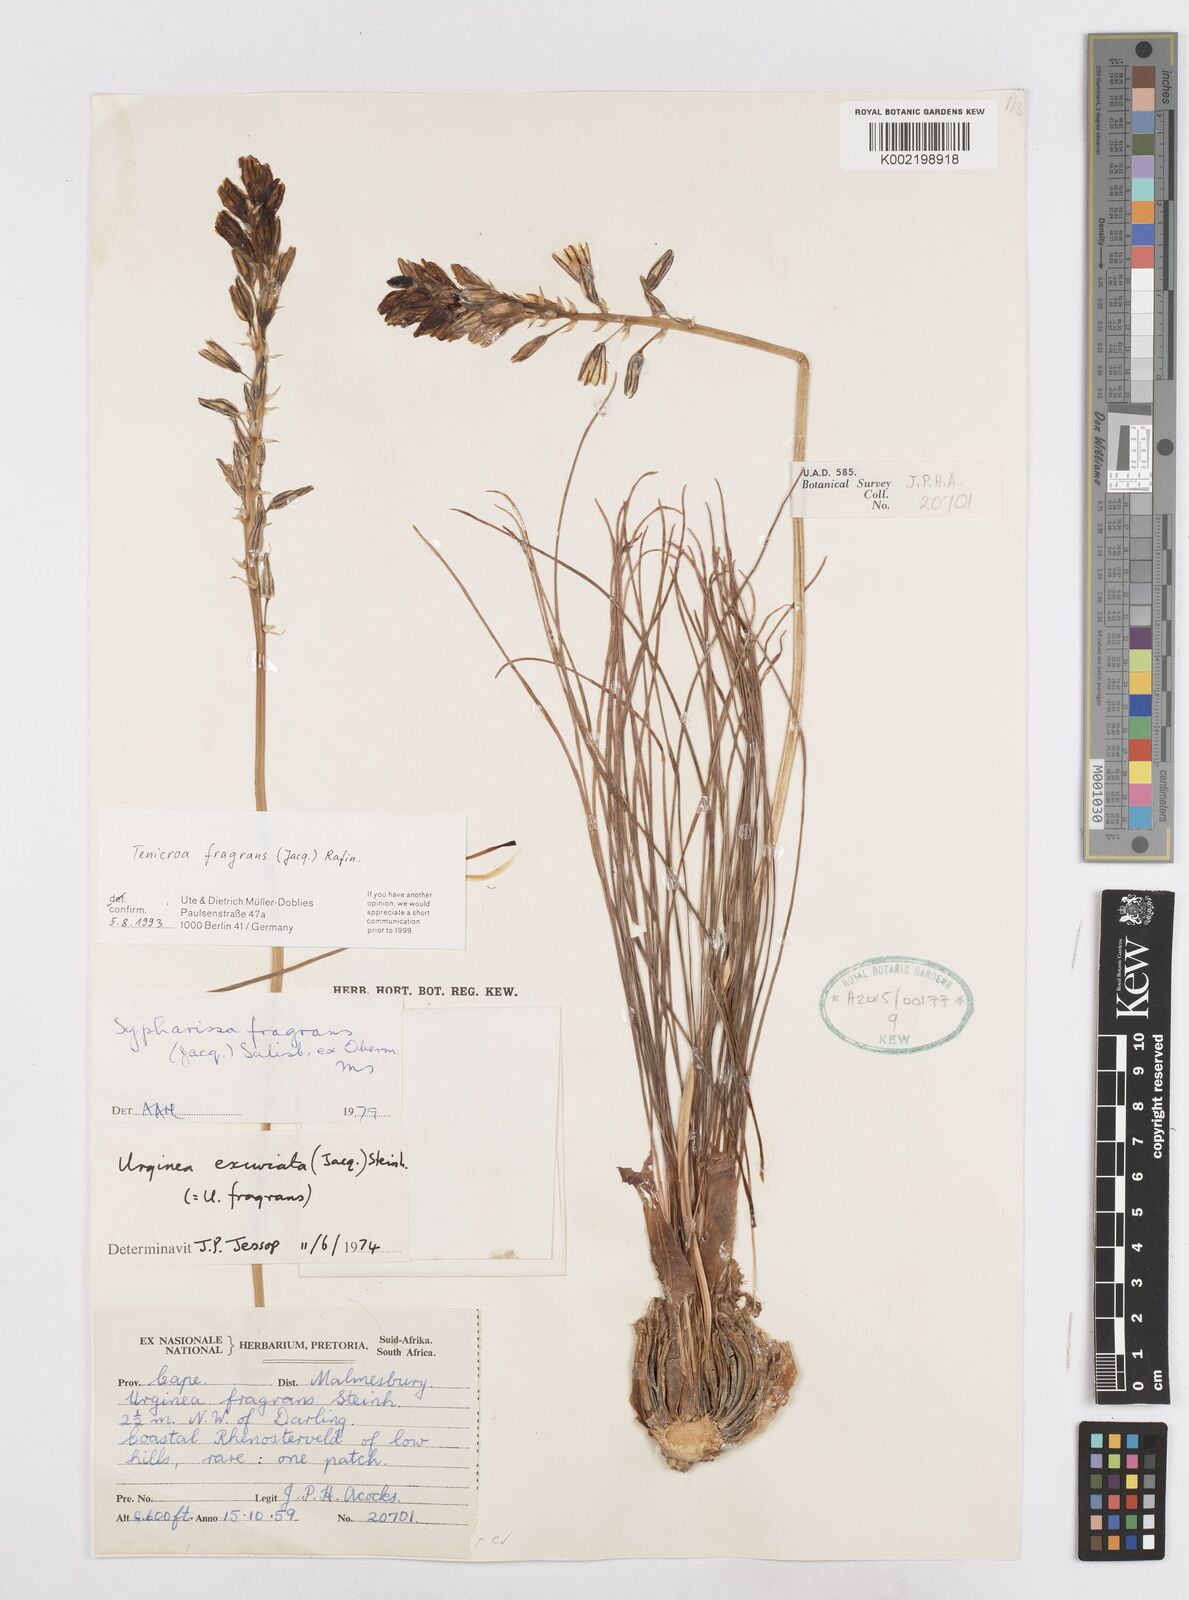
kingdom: Plantae
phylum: Tracheophyta
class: Liliopsida
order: Asparagales
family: Asparagaceae
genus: Drimia
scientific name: Drimia elata
